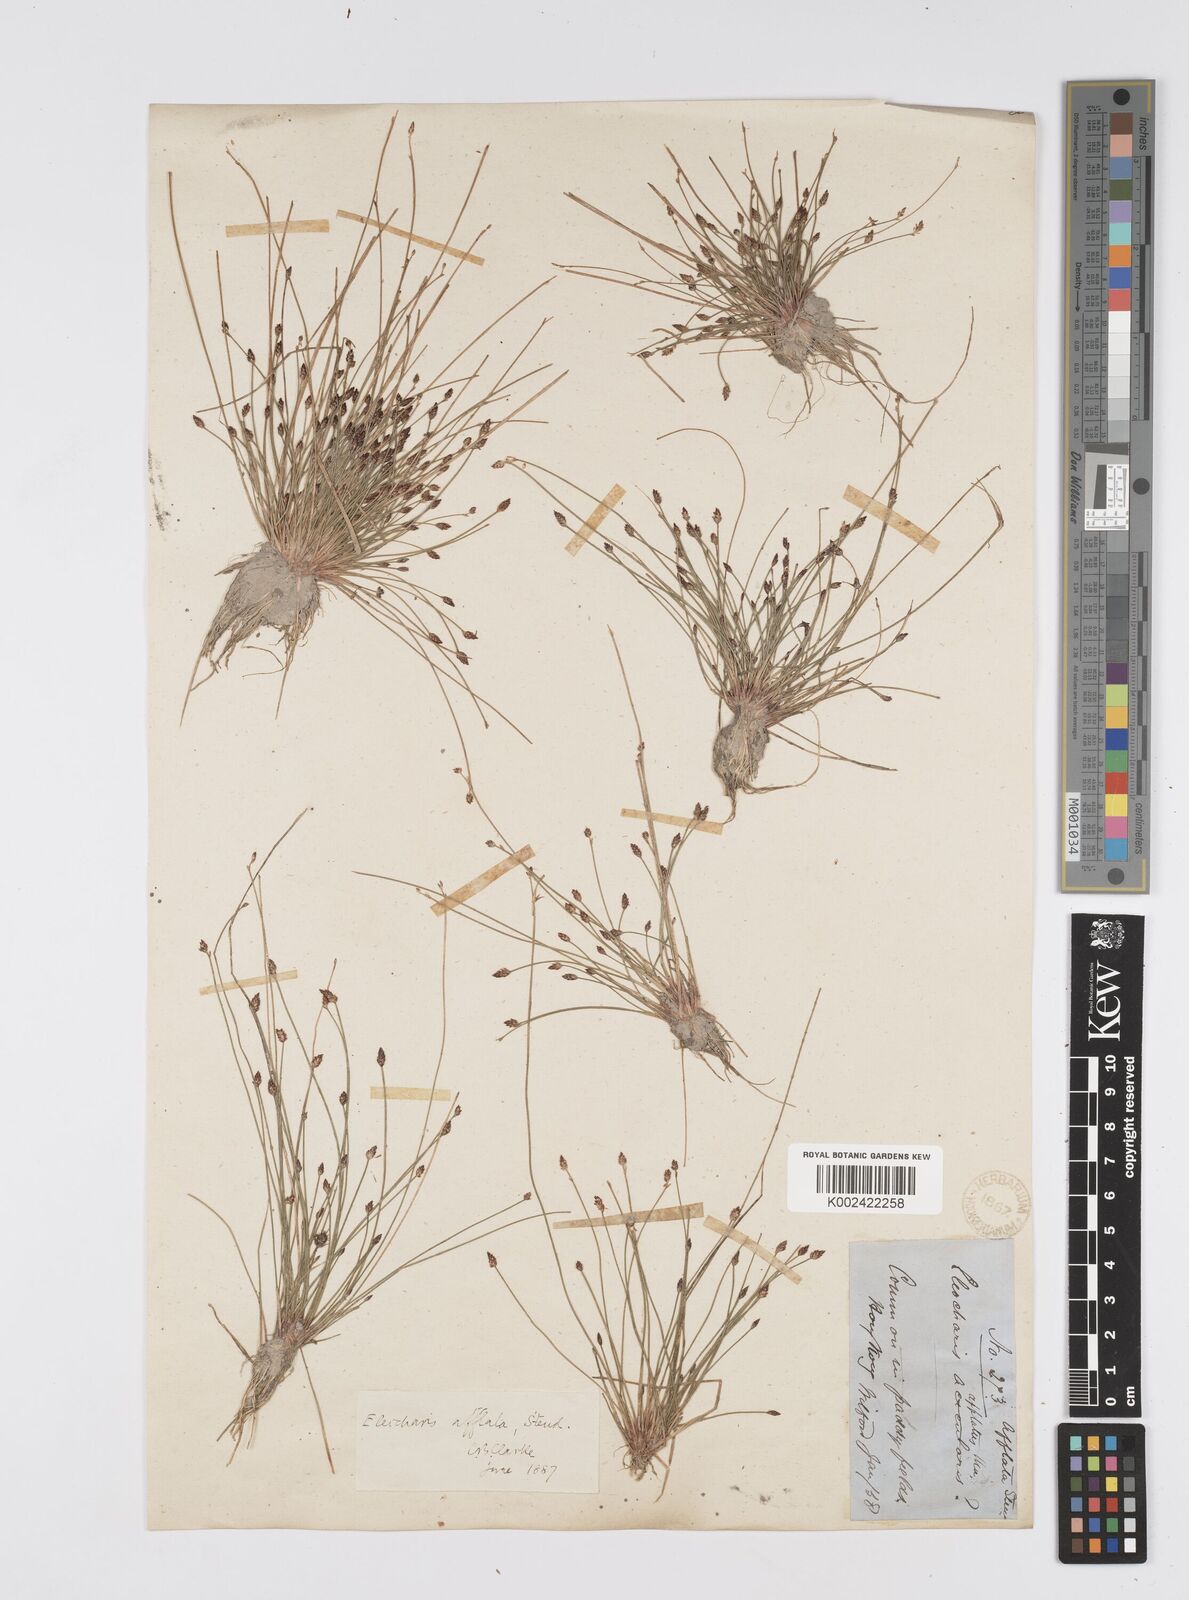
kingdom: Plantae
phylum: Tracheophyta
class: Liliopsida
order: Poales
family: Cyperaceae
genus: Eleocharis
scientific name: Eleocharis pellucida
